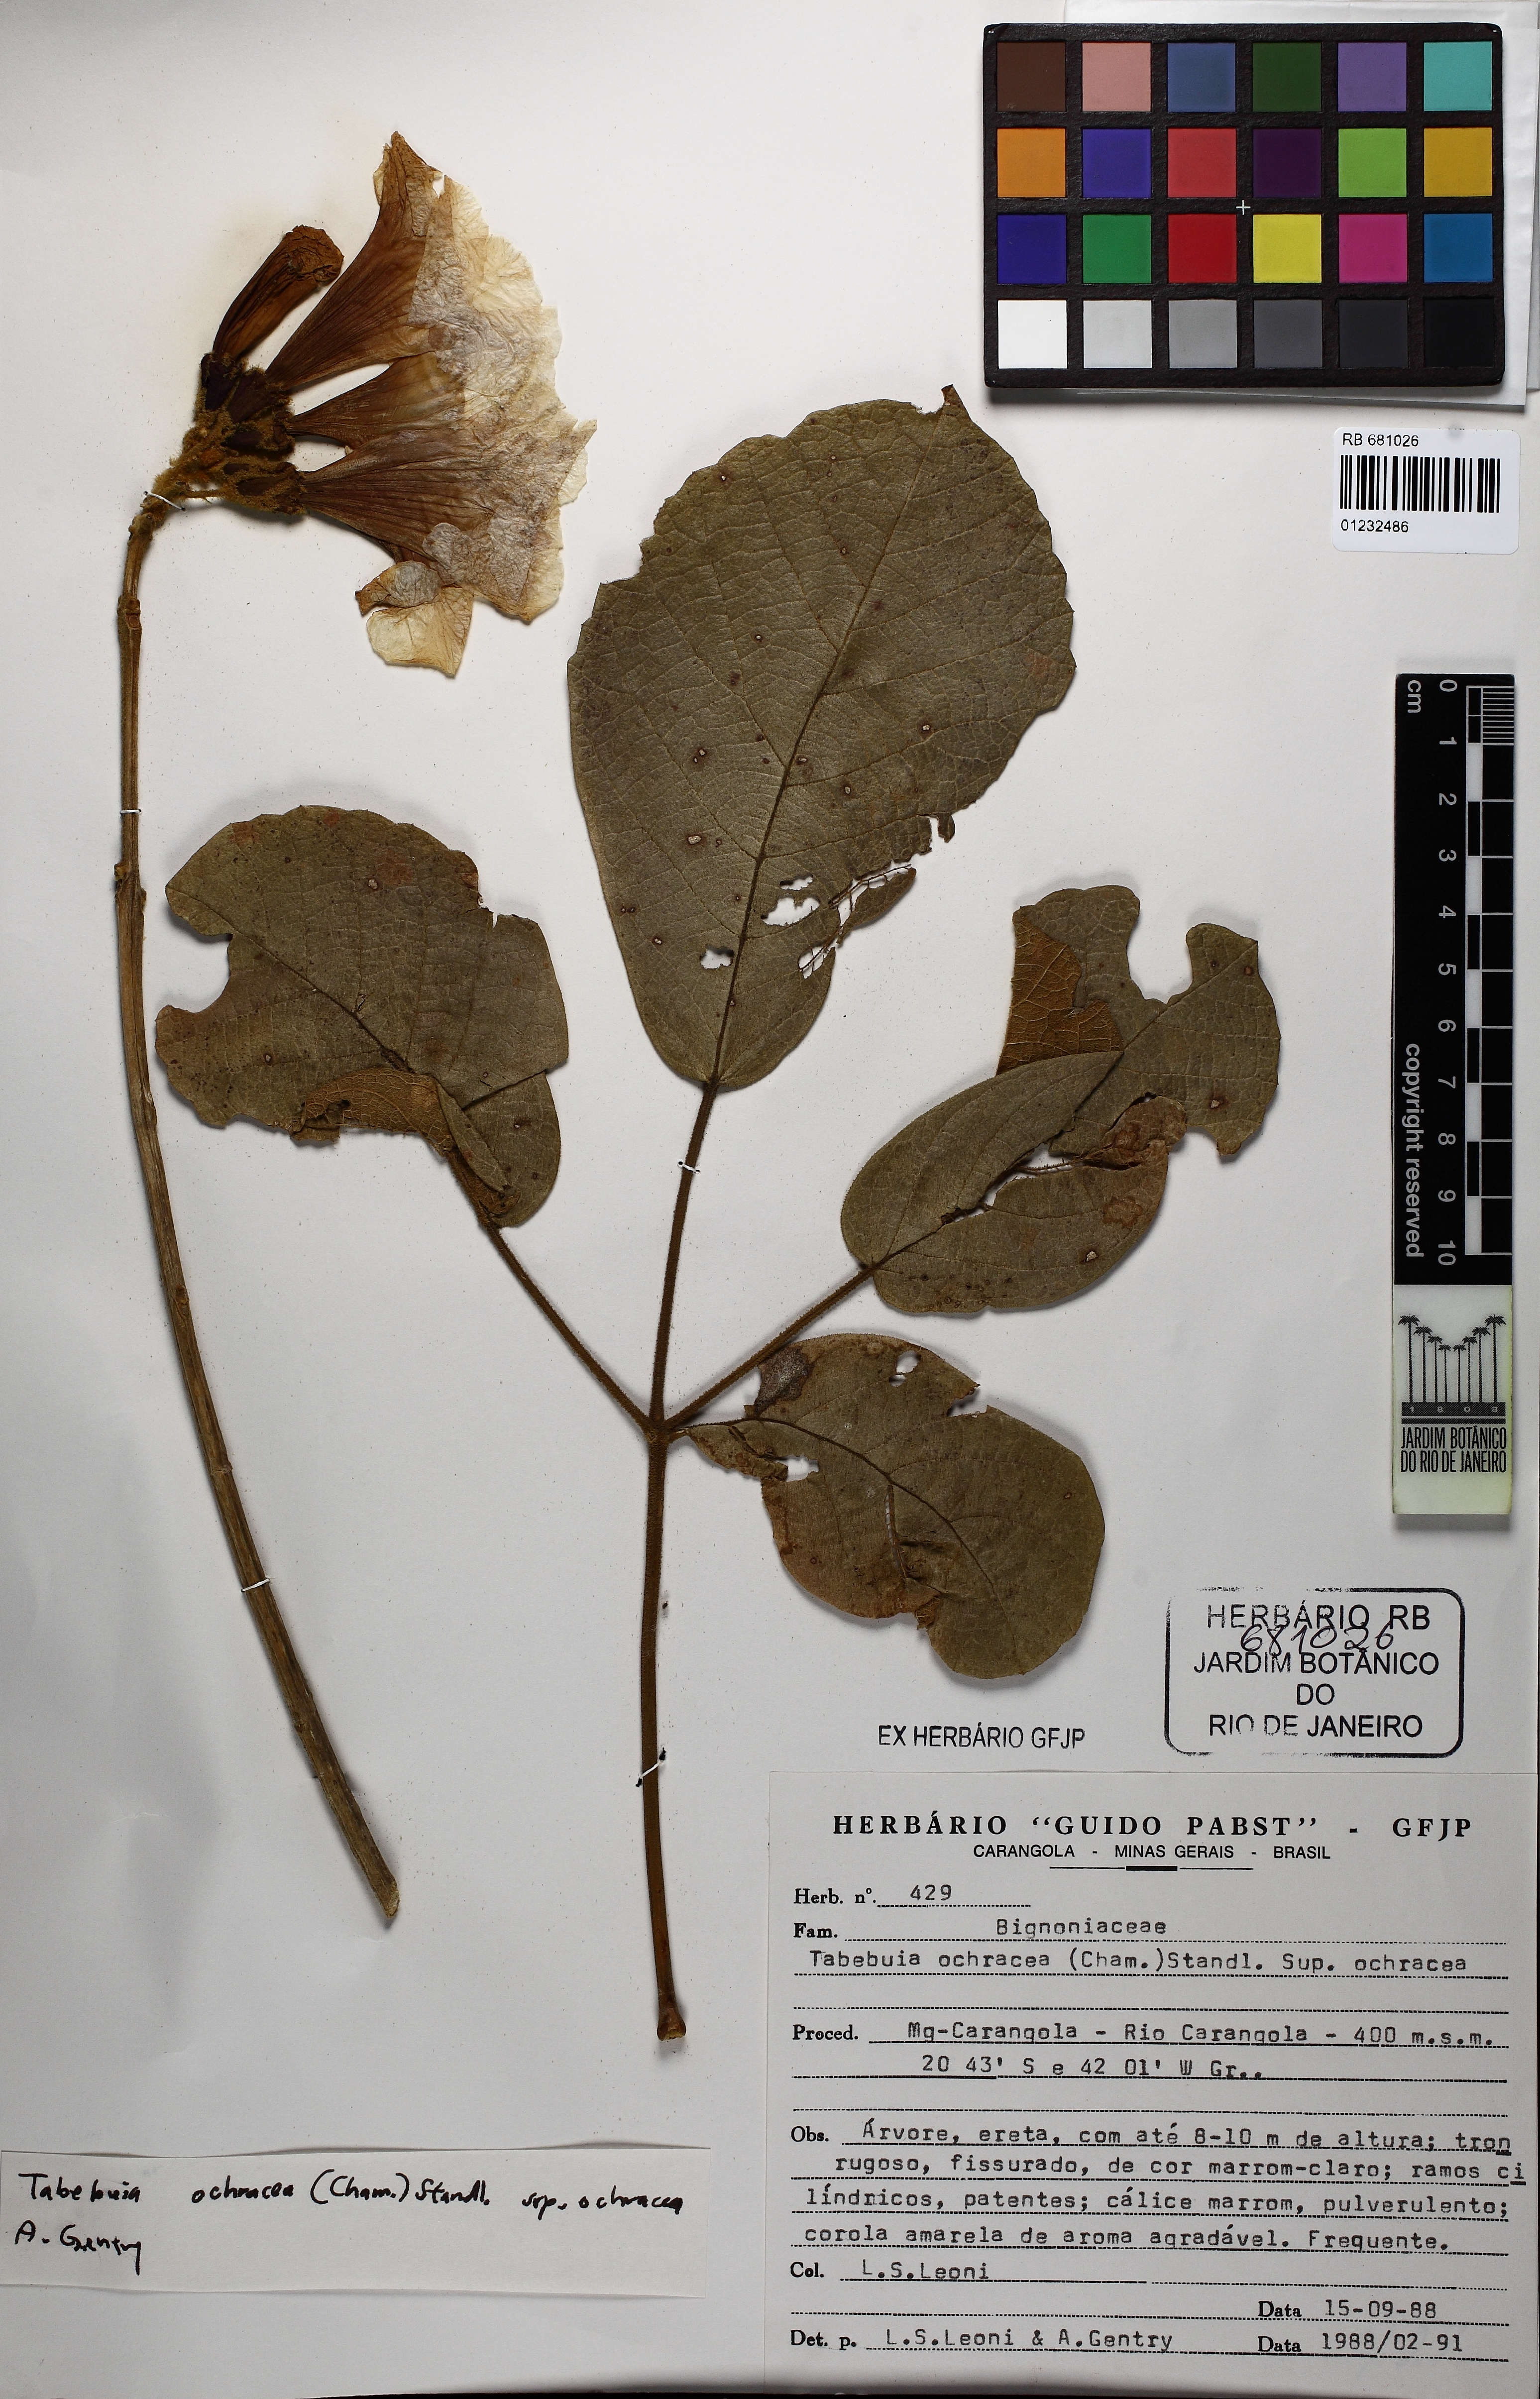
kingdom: Plantae
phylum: Tracheophyta
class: Magnoliopsida
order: Lamiales
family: Bignoniaceae
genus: Handroanthus
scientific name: Handroanthus ochraceus
